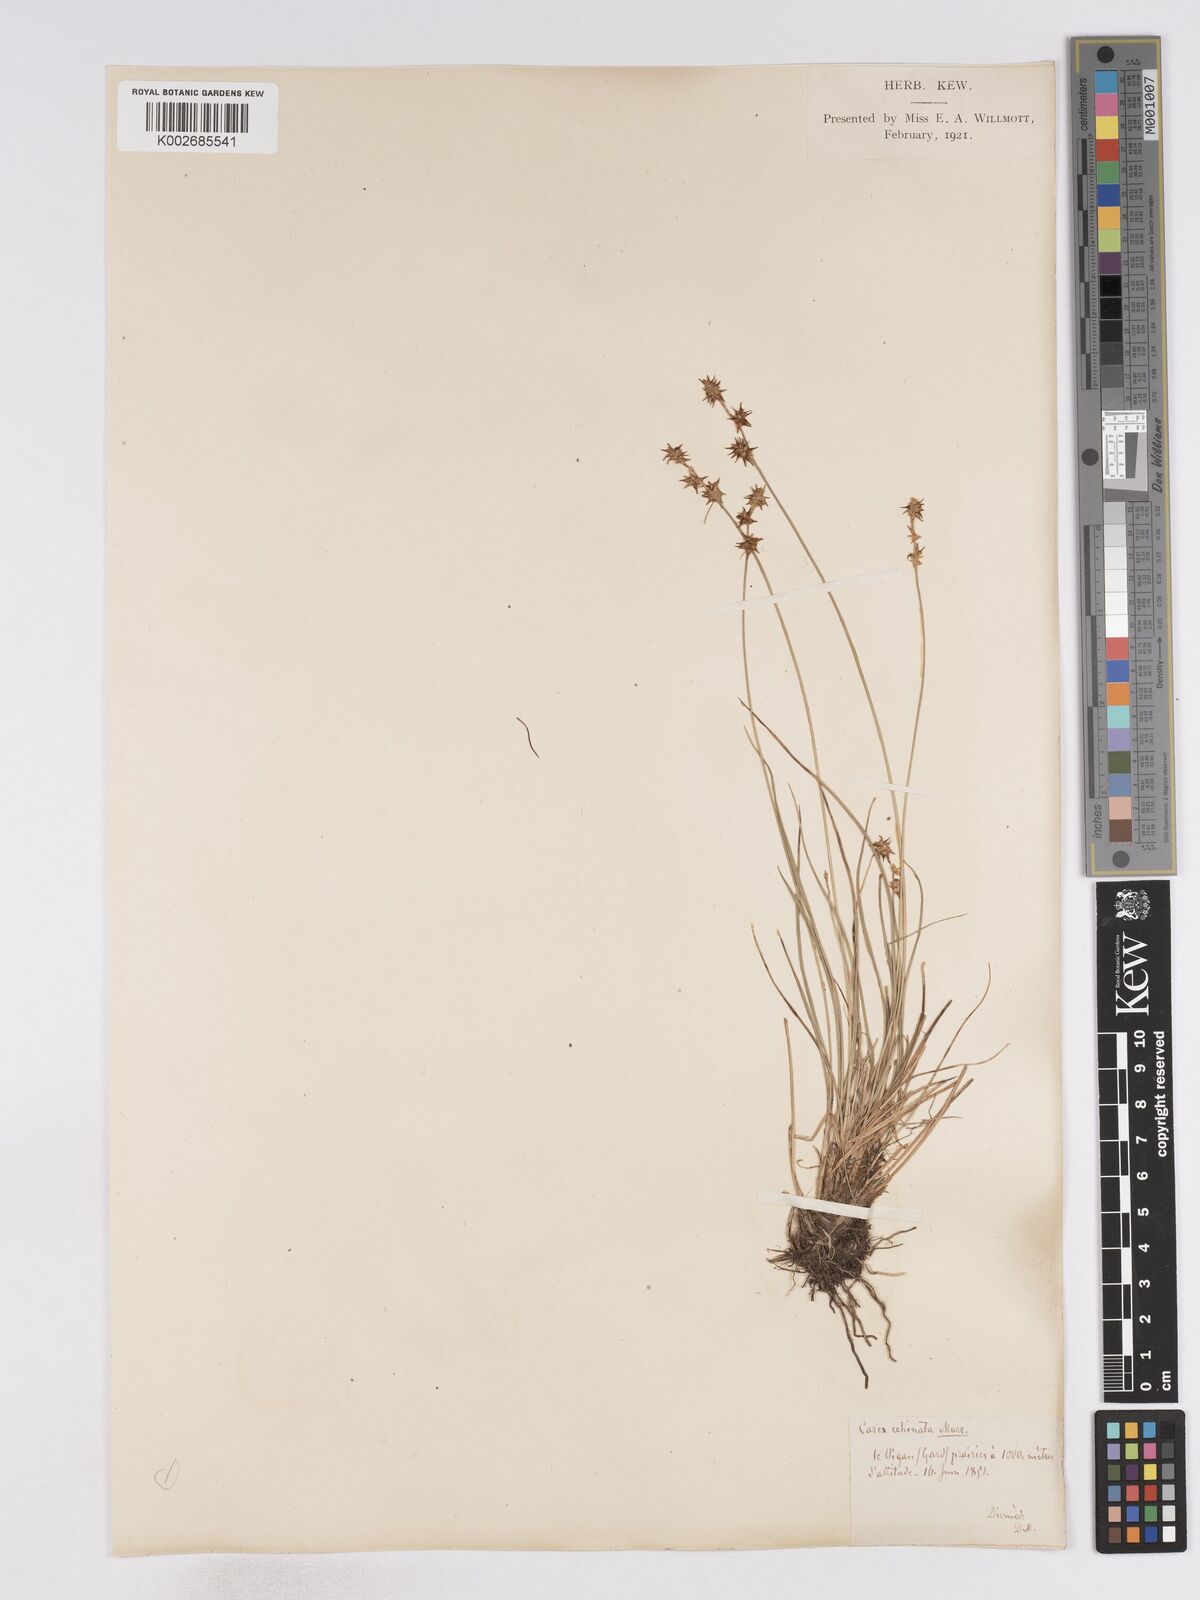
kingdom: Plantae
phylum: Tracheophyta
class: Liliopsida
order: Poales
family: Cyperaceae
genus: Carex
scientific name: Carex echinata
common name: Star sedge
